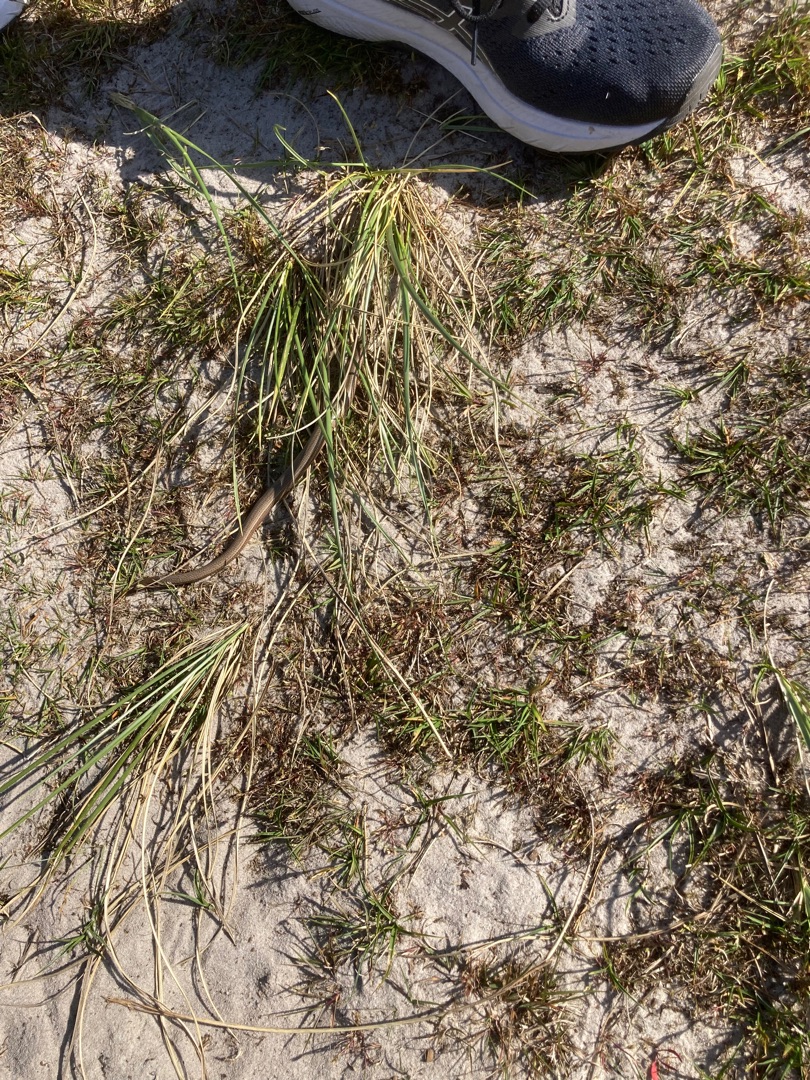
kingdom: Animalia
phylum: Chordata
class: Squamata
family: Anguidae
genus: Anguis
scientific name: Anguis fragilis
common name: Stålorm
